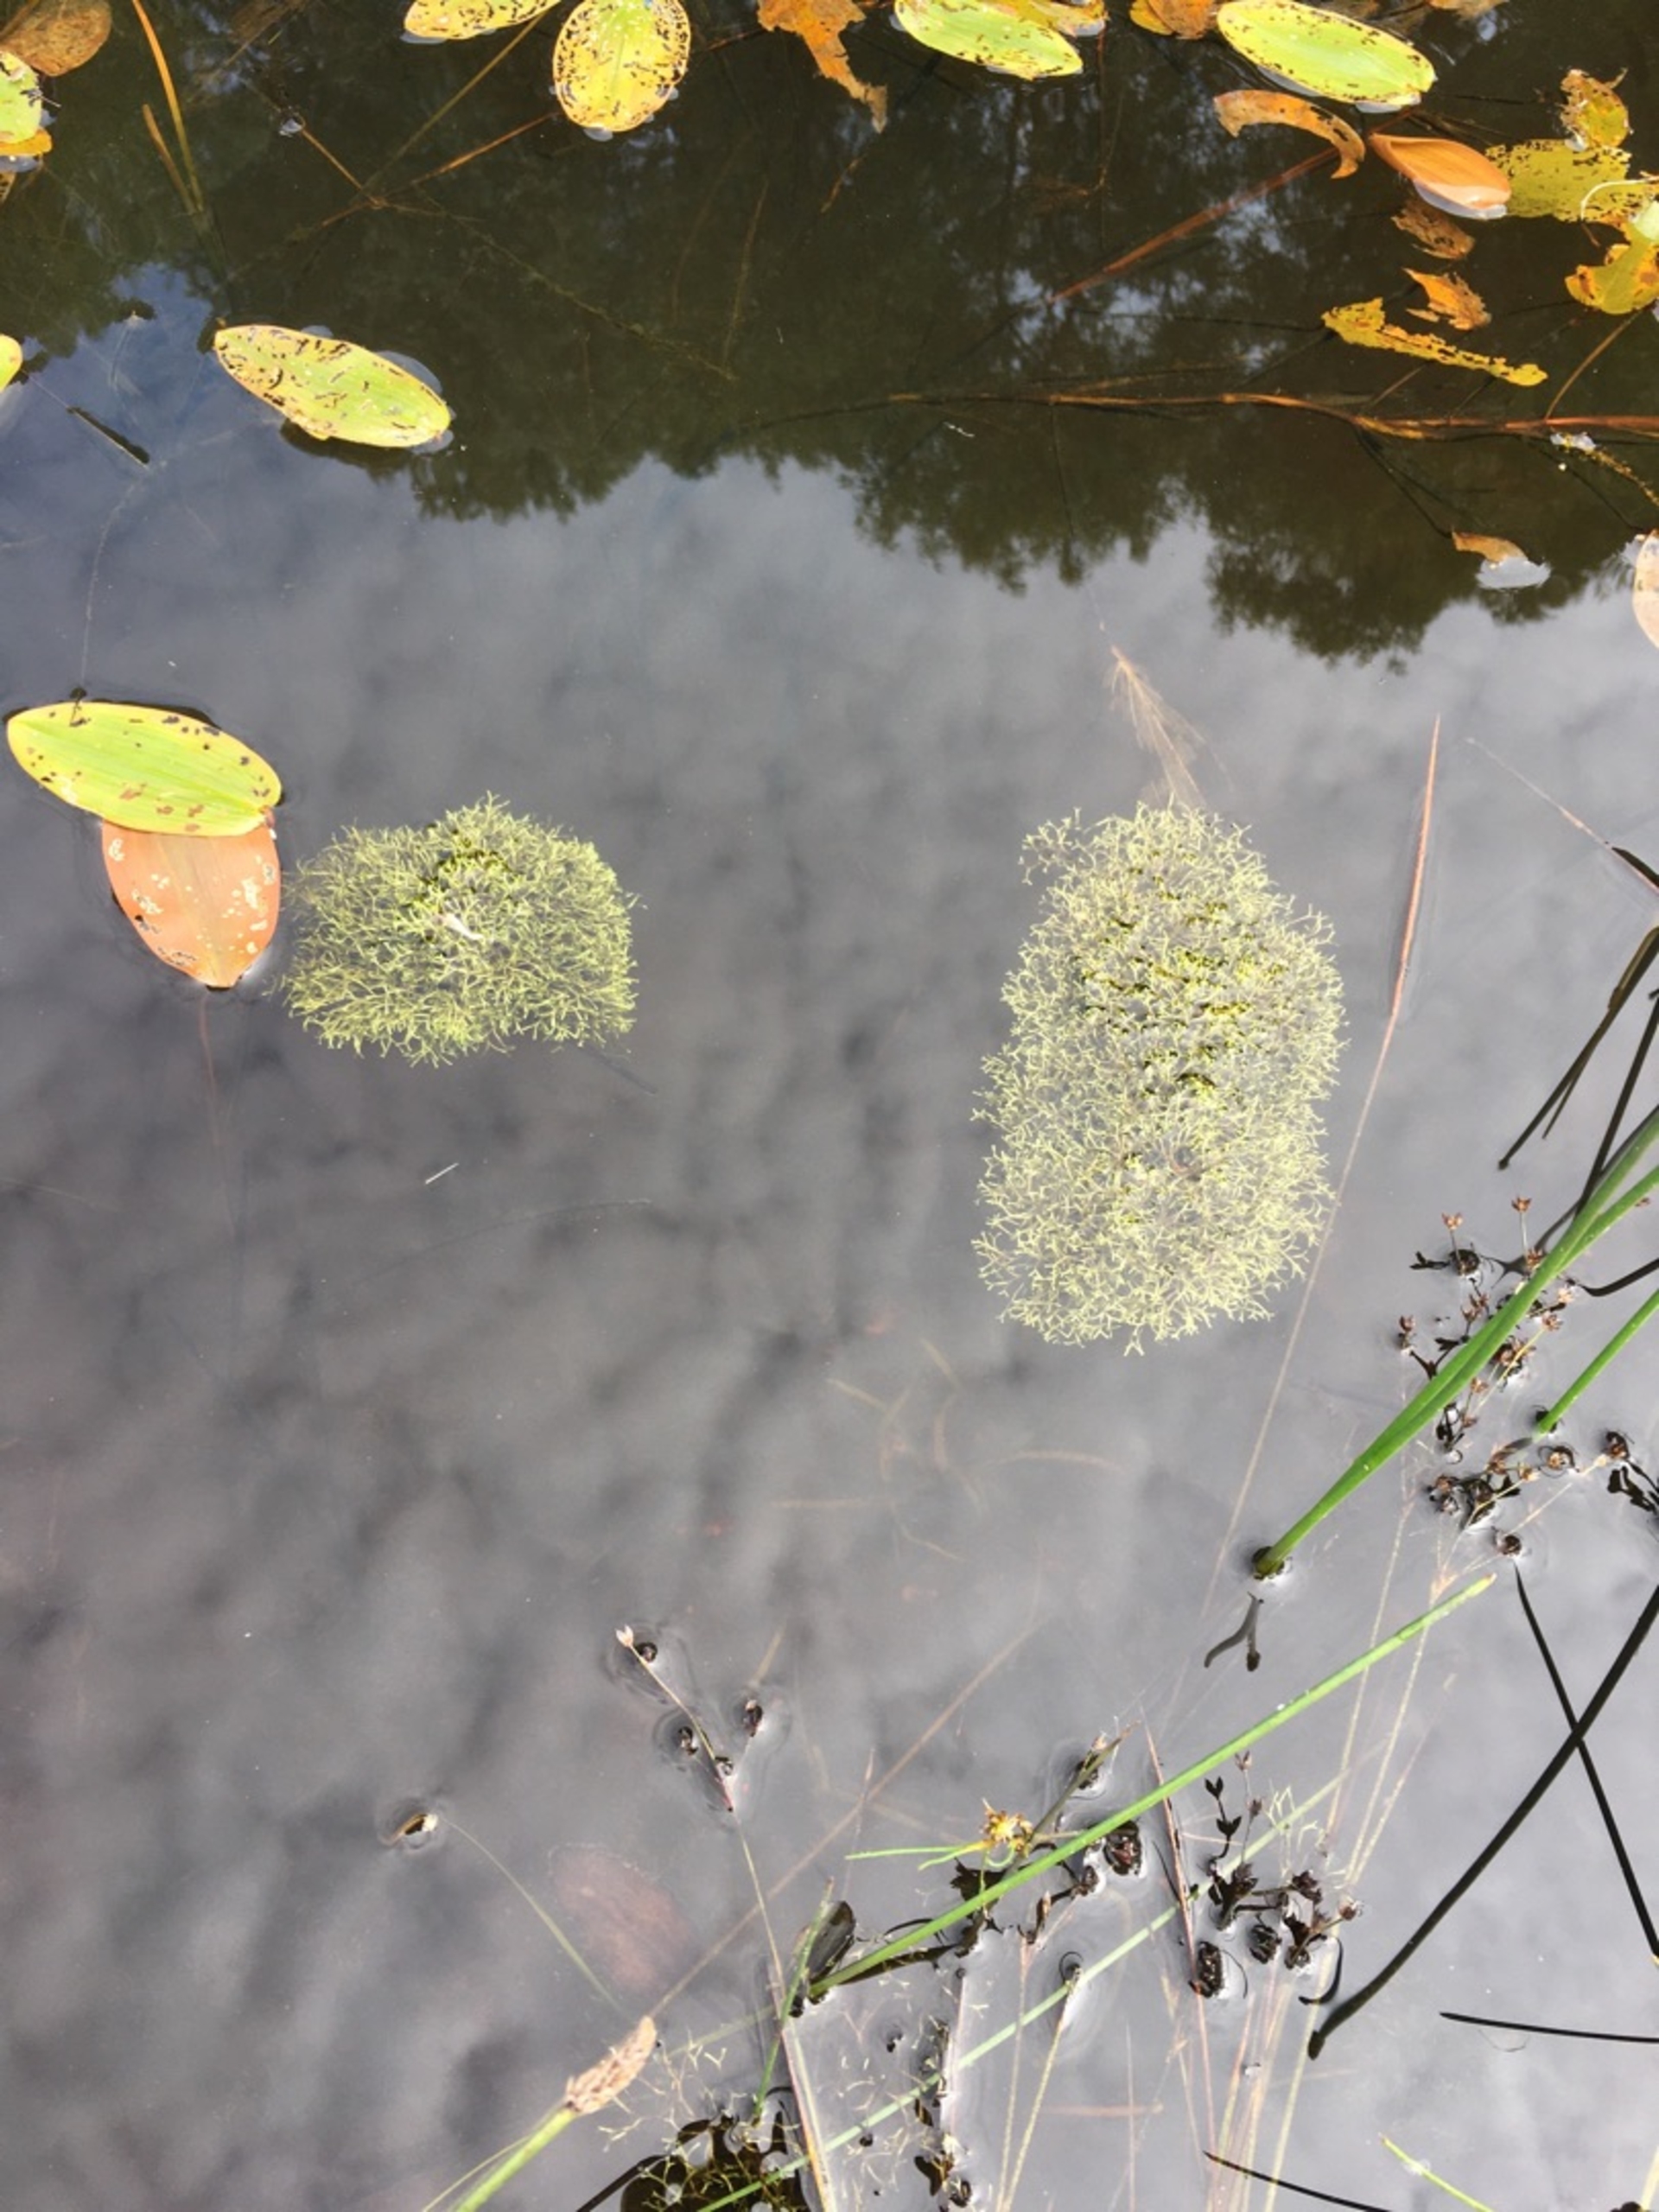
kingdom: Plantae
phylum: Marchantiophyta
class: Marchantiopsida
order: Marchantiales
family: Ricciaceae
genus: Riccia
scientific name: Riccia fluitans
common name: Svømmende stjerneløv
